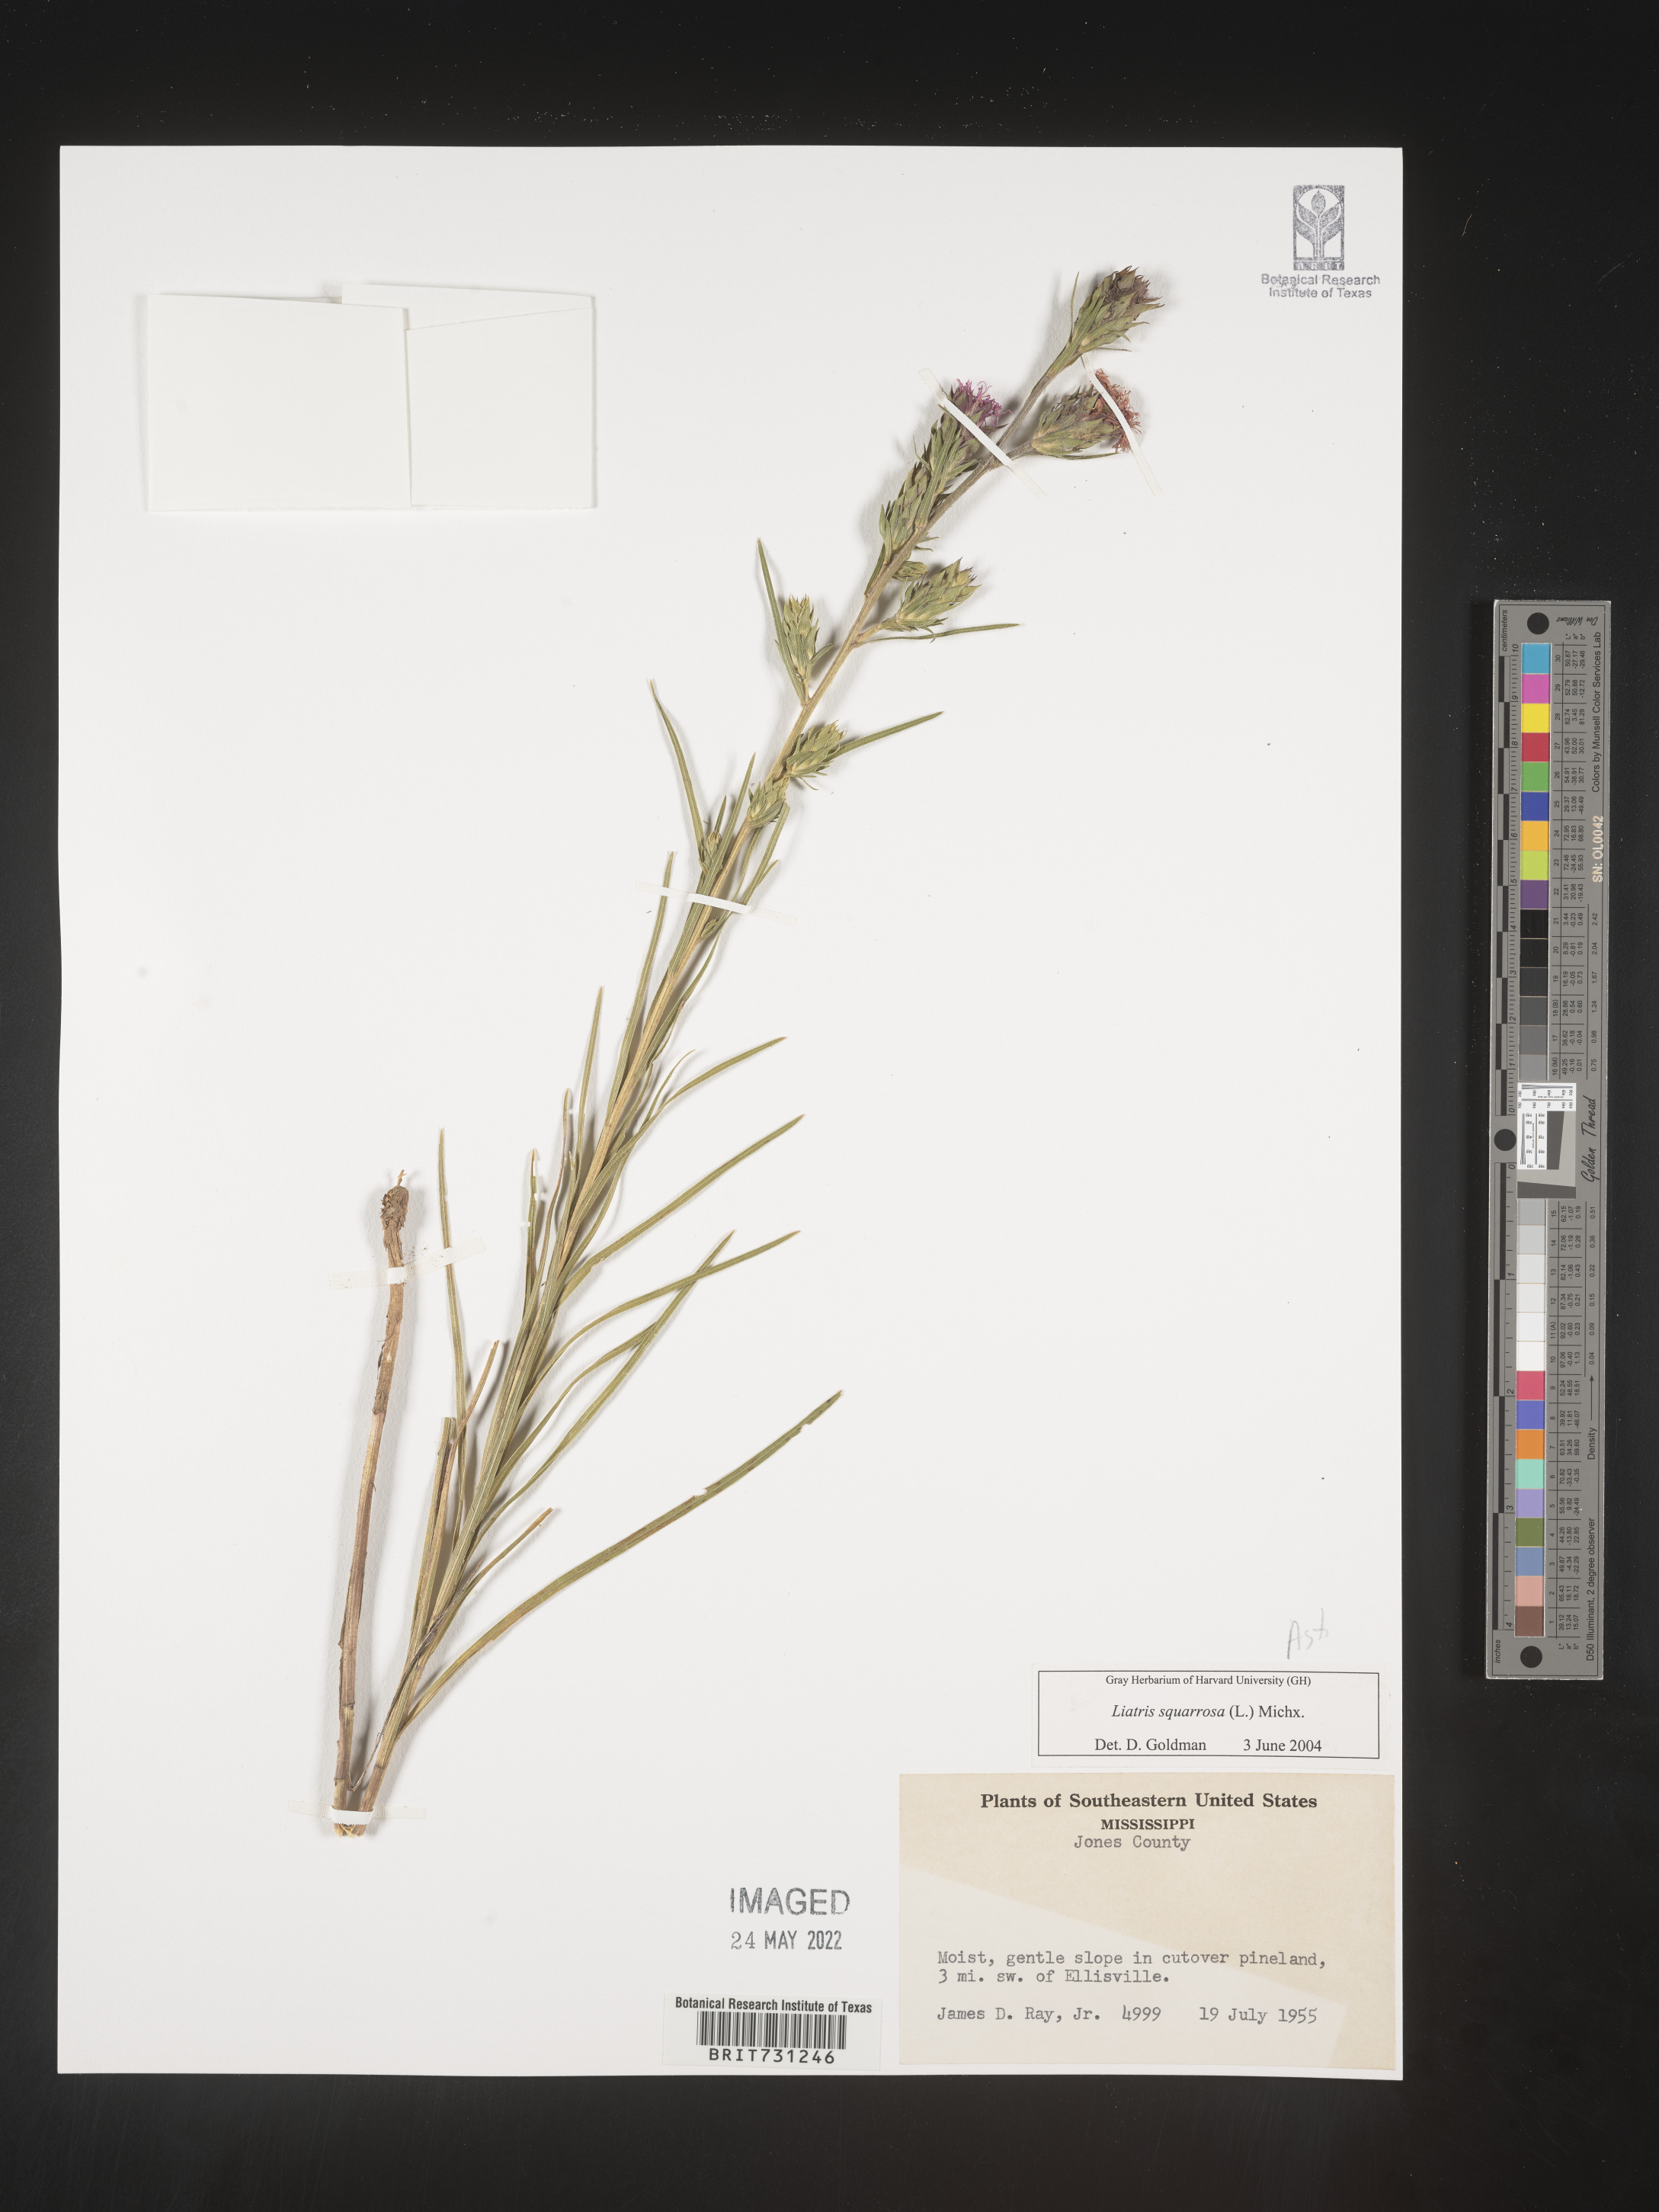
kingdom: Plantae
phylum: Tracheophyta
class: Magnoliopsida
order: Asterales
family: Asteraceae
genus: Liatris
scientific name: Liatris squarrosa
